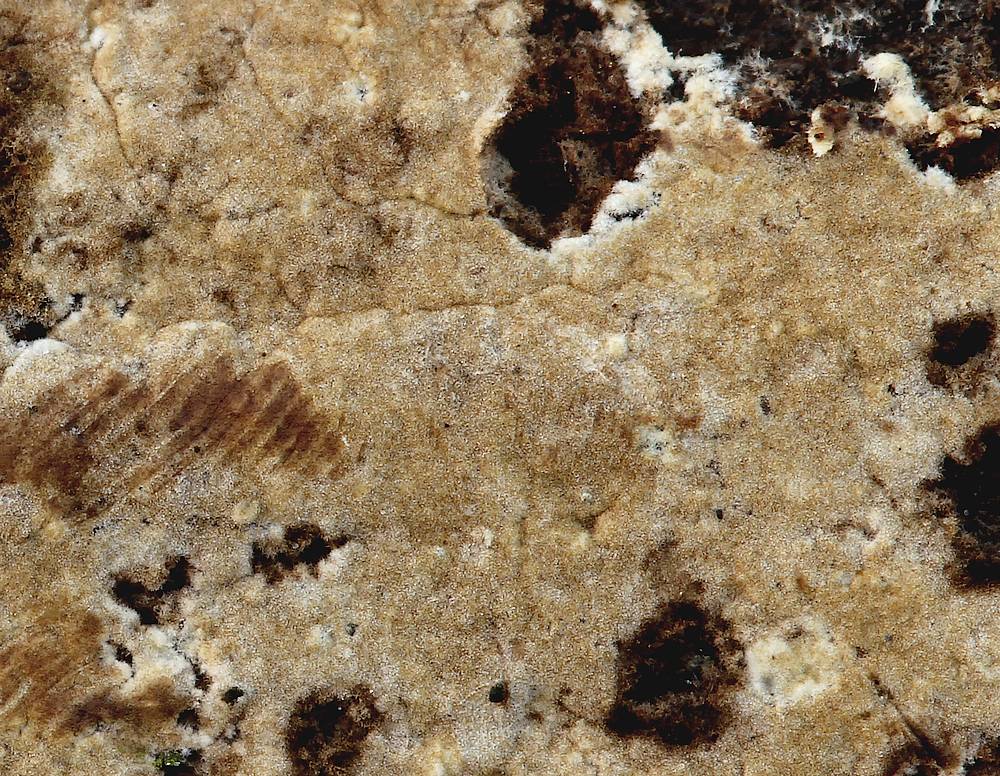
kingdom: Fungi
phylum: Basidiomycota
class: Agaricomycetes
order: Boletales
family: Coniophoraceae
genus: Coniophora
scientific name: Coniophora arida
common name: tynd tømmersvamp
